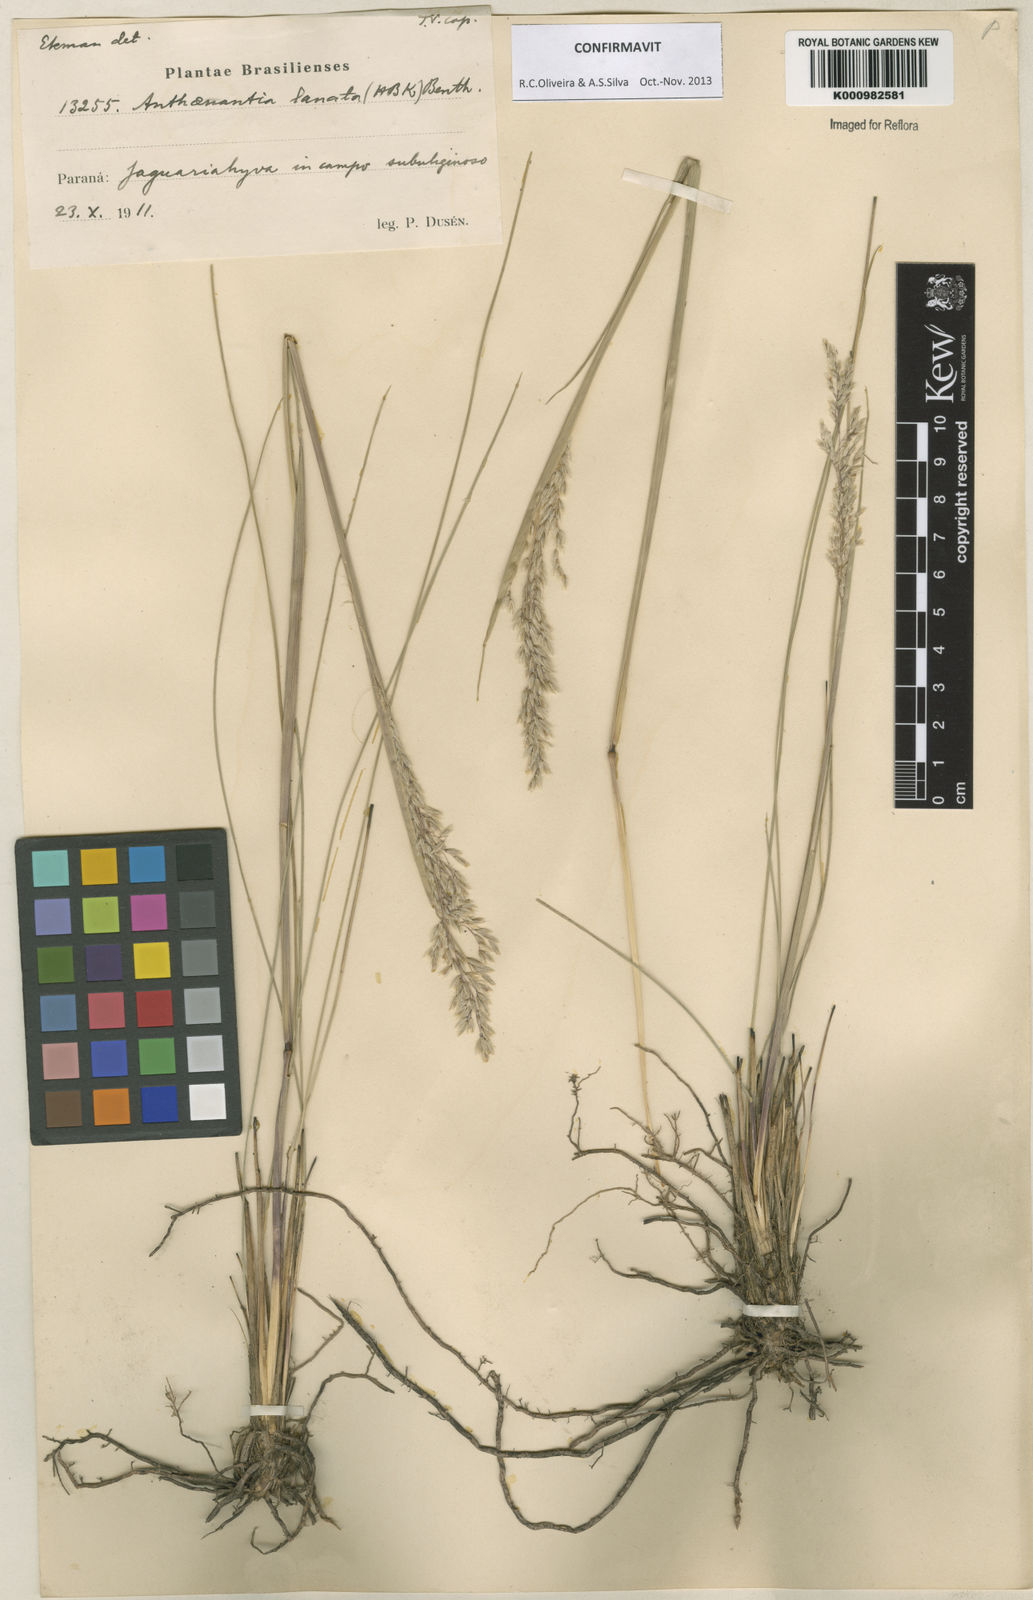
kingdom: Plantae
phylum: Tracheophyta
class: Liliopsida
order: Poales
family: Poaceae
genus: Anthenantia
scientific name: Anthenantia lanata
